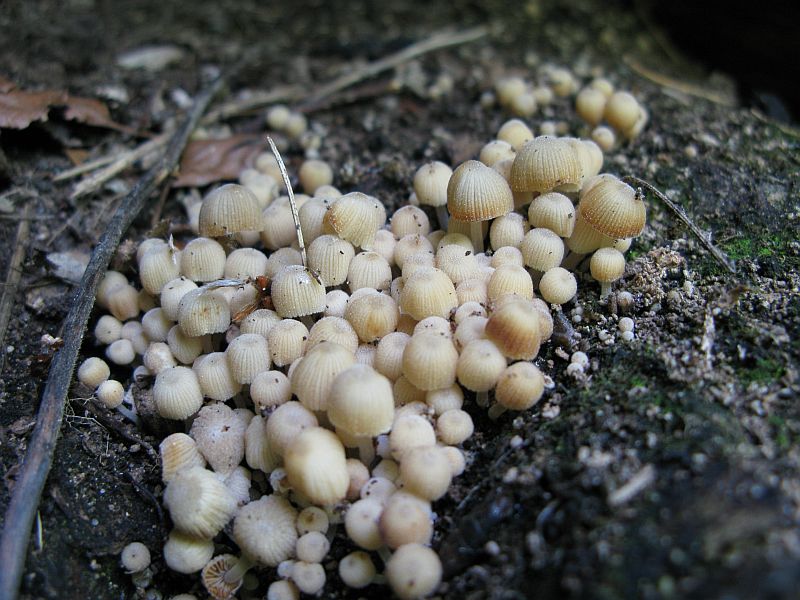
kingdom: Fungi
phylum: Basidiomycota
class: Agaricomycetes
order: Agaricales
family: Psathyrellaceae
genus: Coprinellus
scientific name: Coprinellus disseminatus
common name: bredsået blækhat
